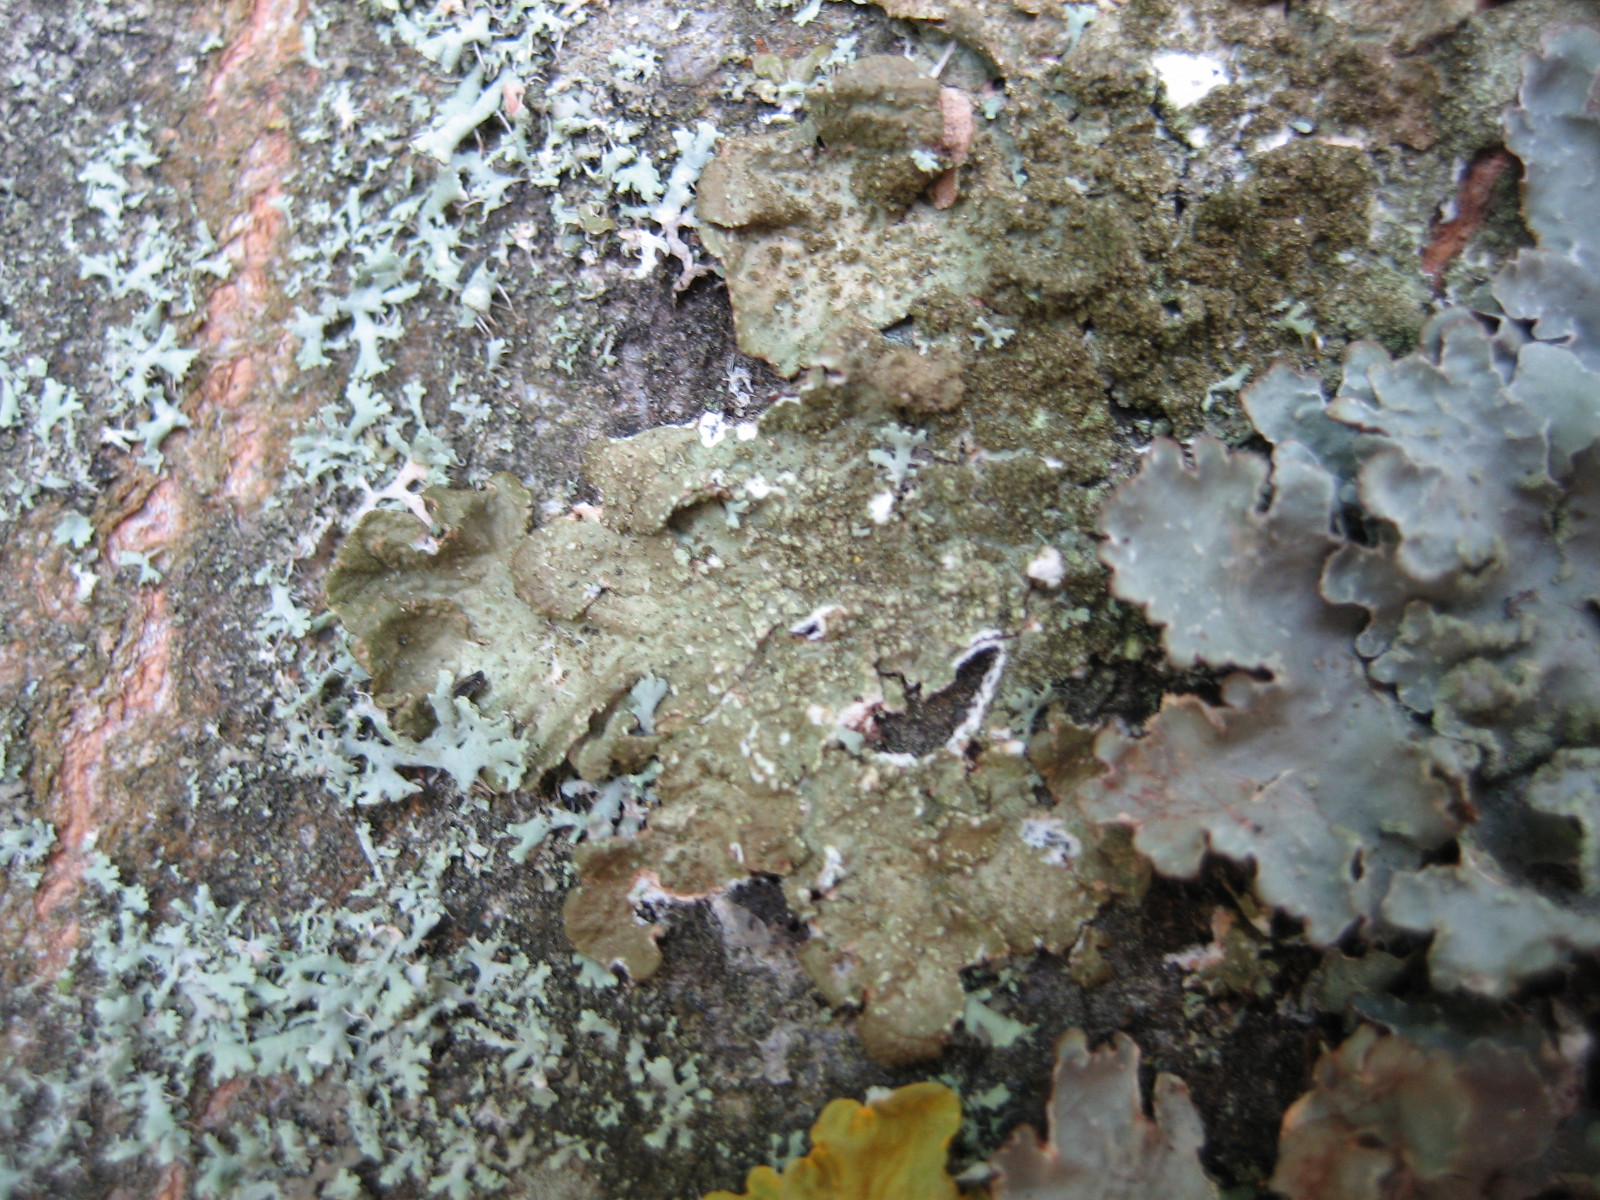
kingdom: Fungi
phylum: Ascomycota
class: Lecanoromycetes
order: Lecanorales
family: Parmeliaceae
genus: Melanelixia
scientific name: Melanelixia subaurifera
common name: guldpudret skållav
